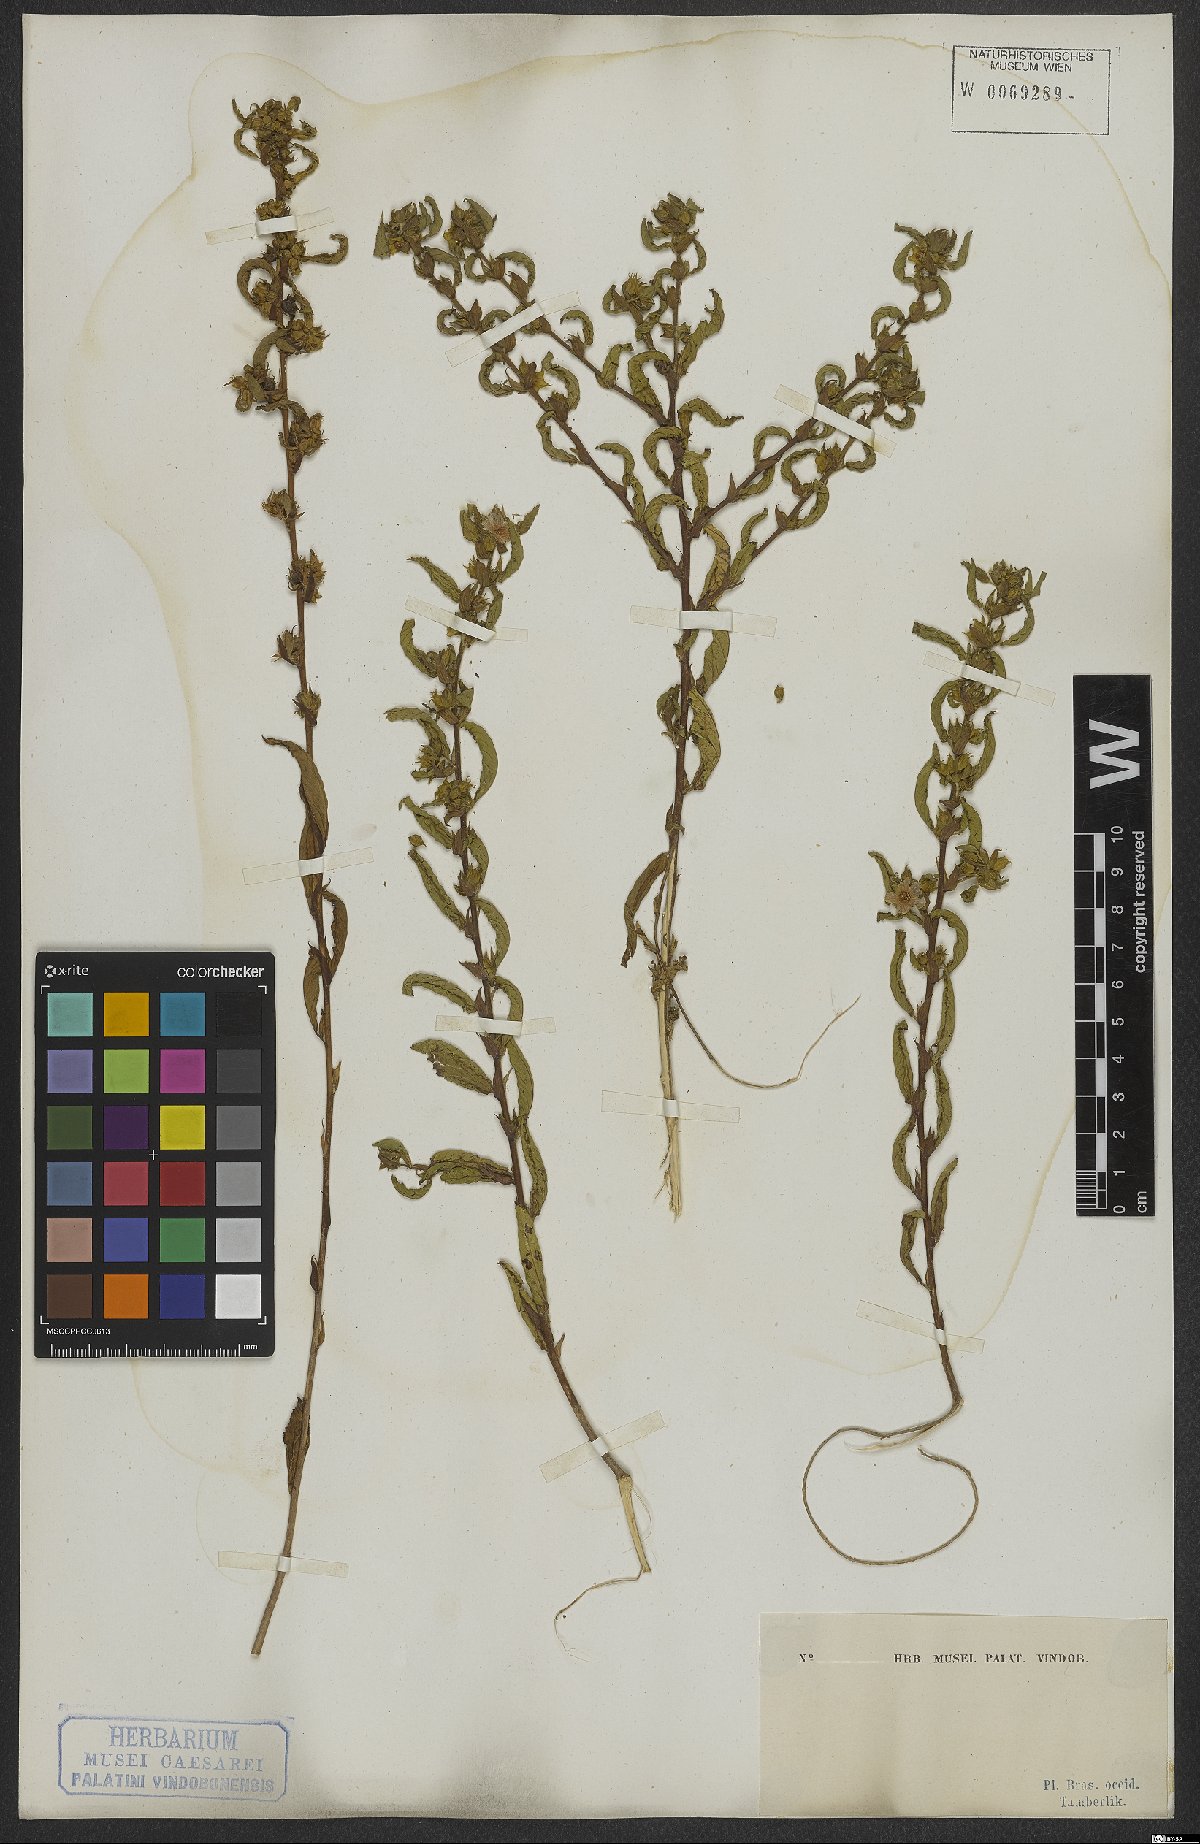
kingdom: Plantae
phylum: Tracheophyta
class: Magnoliopsida
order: Malvales
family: Malvaceae
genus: Sida
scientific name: Sida glomerata
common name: Clustered fanpetals
